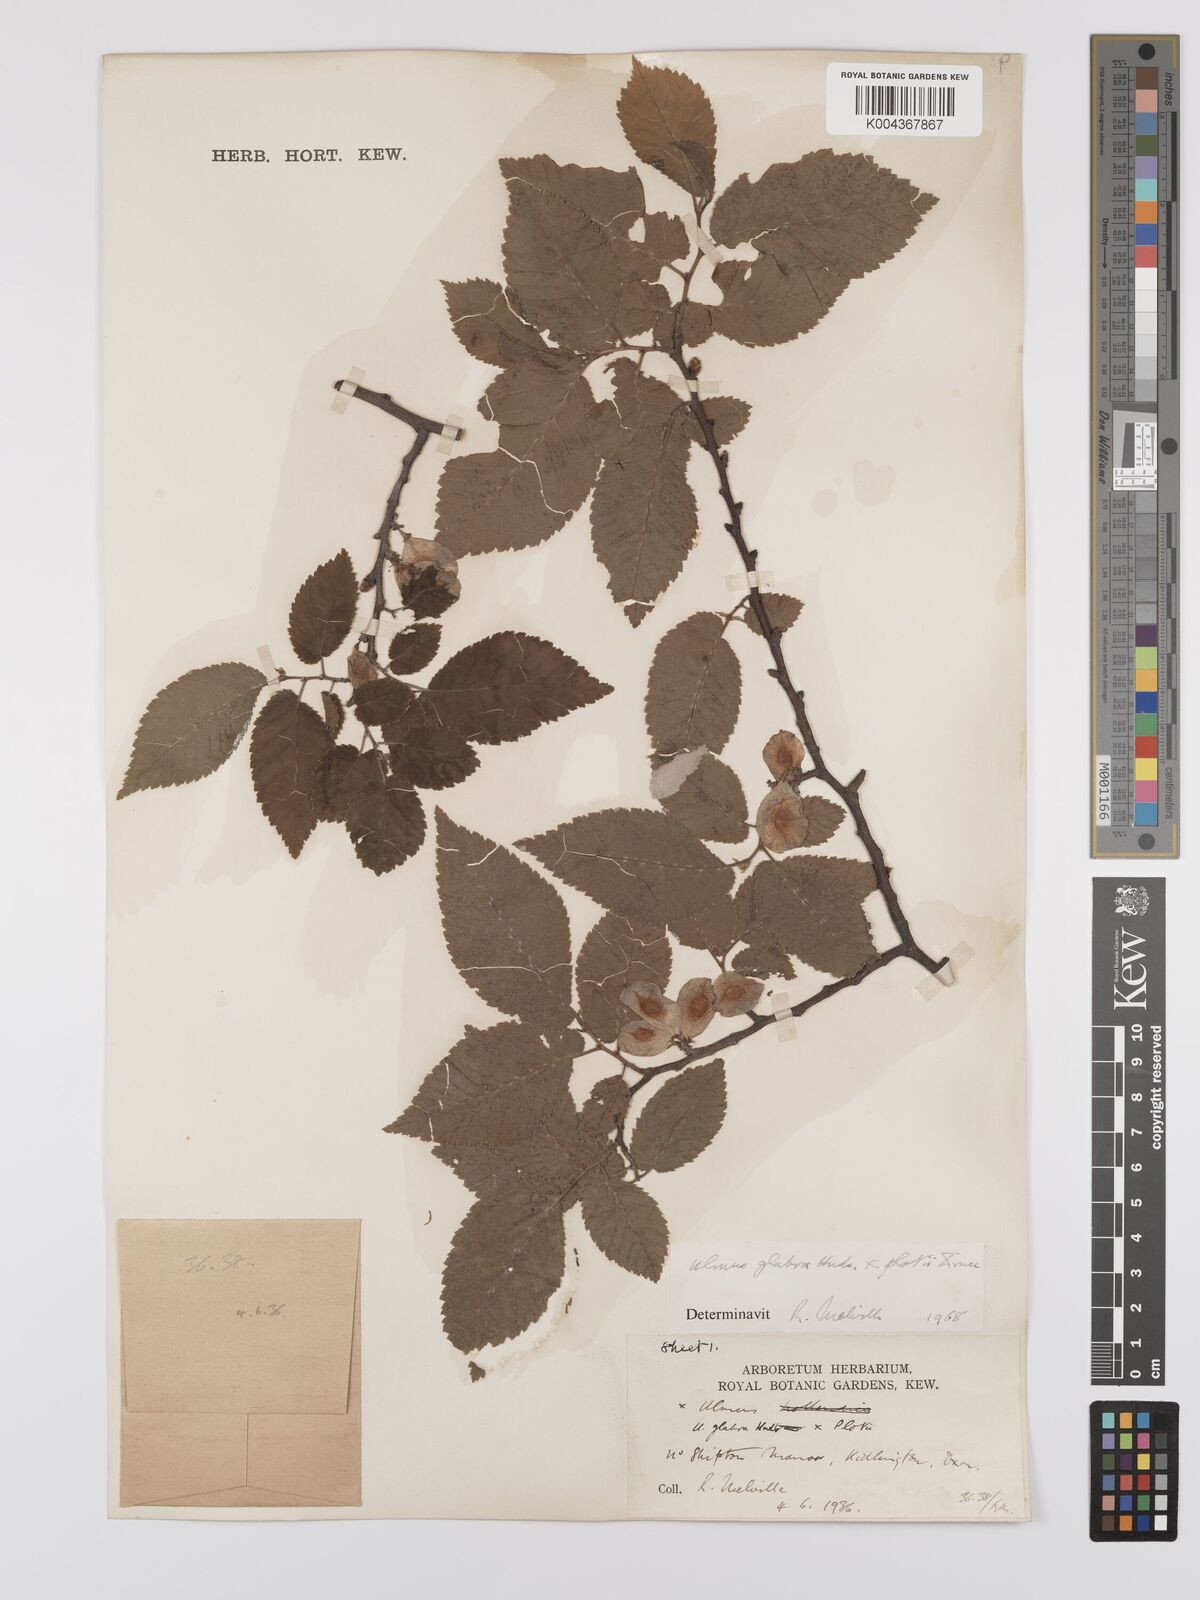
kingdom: Plantae
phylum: Tracheophyta
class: Magnoliopsida
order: Rosales
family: Ulmaceae
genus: Ulmus
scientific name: Ulmus
